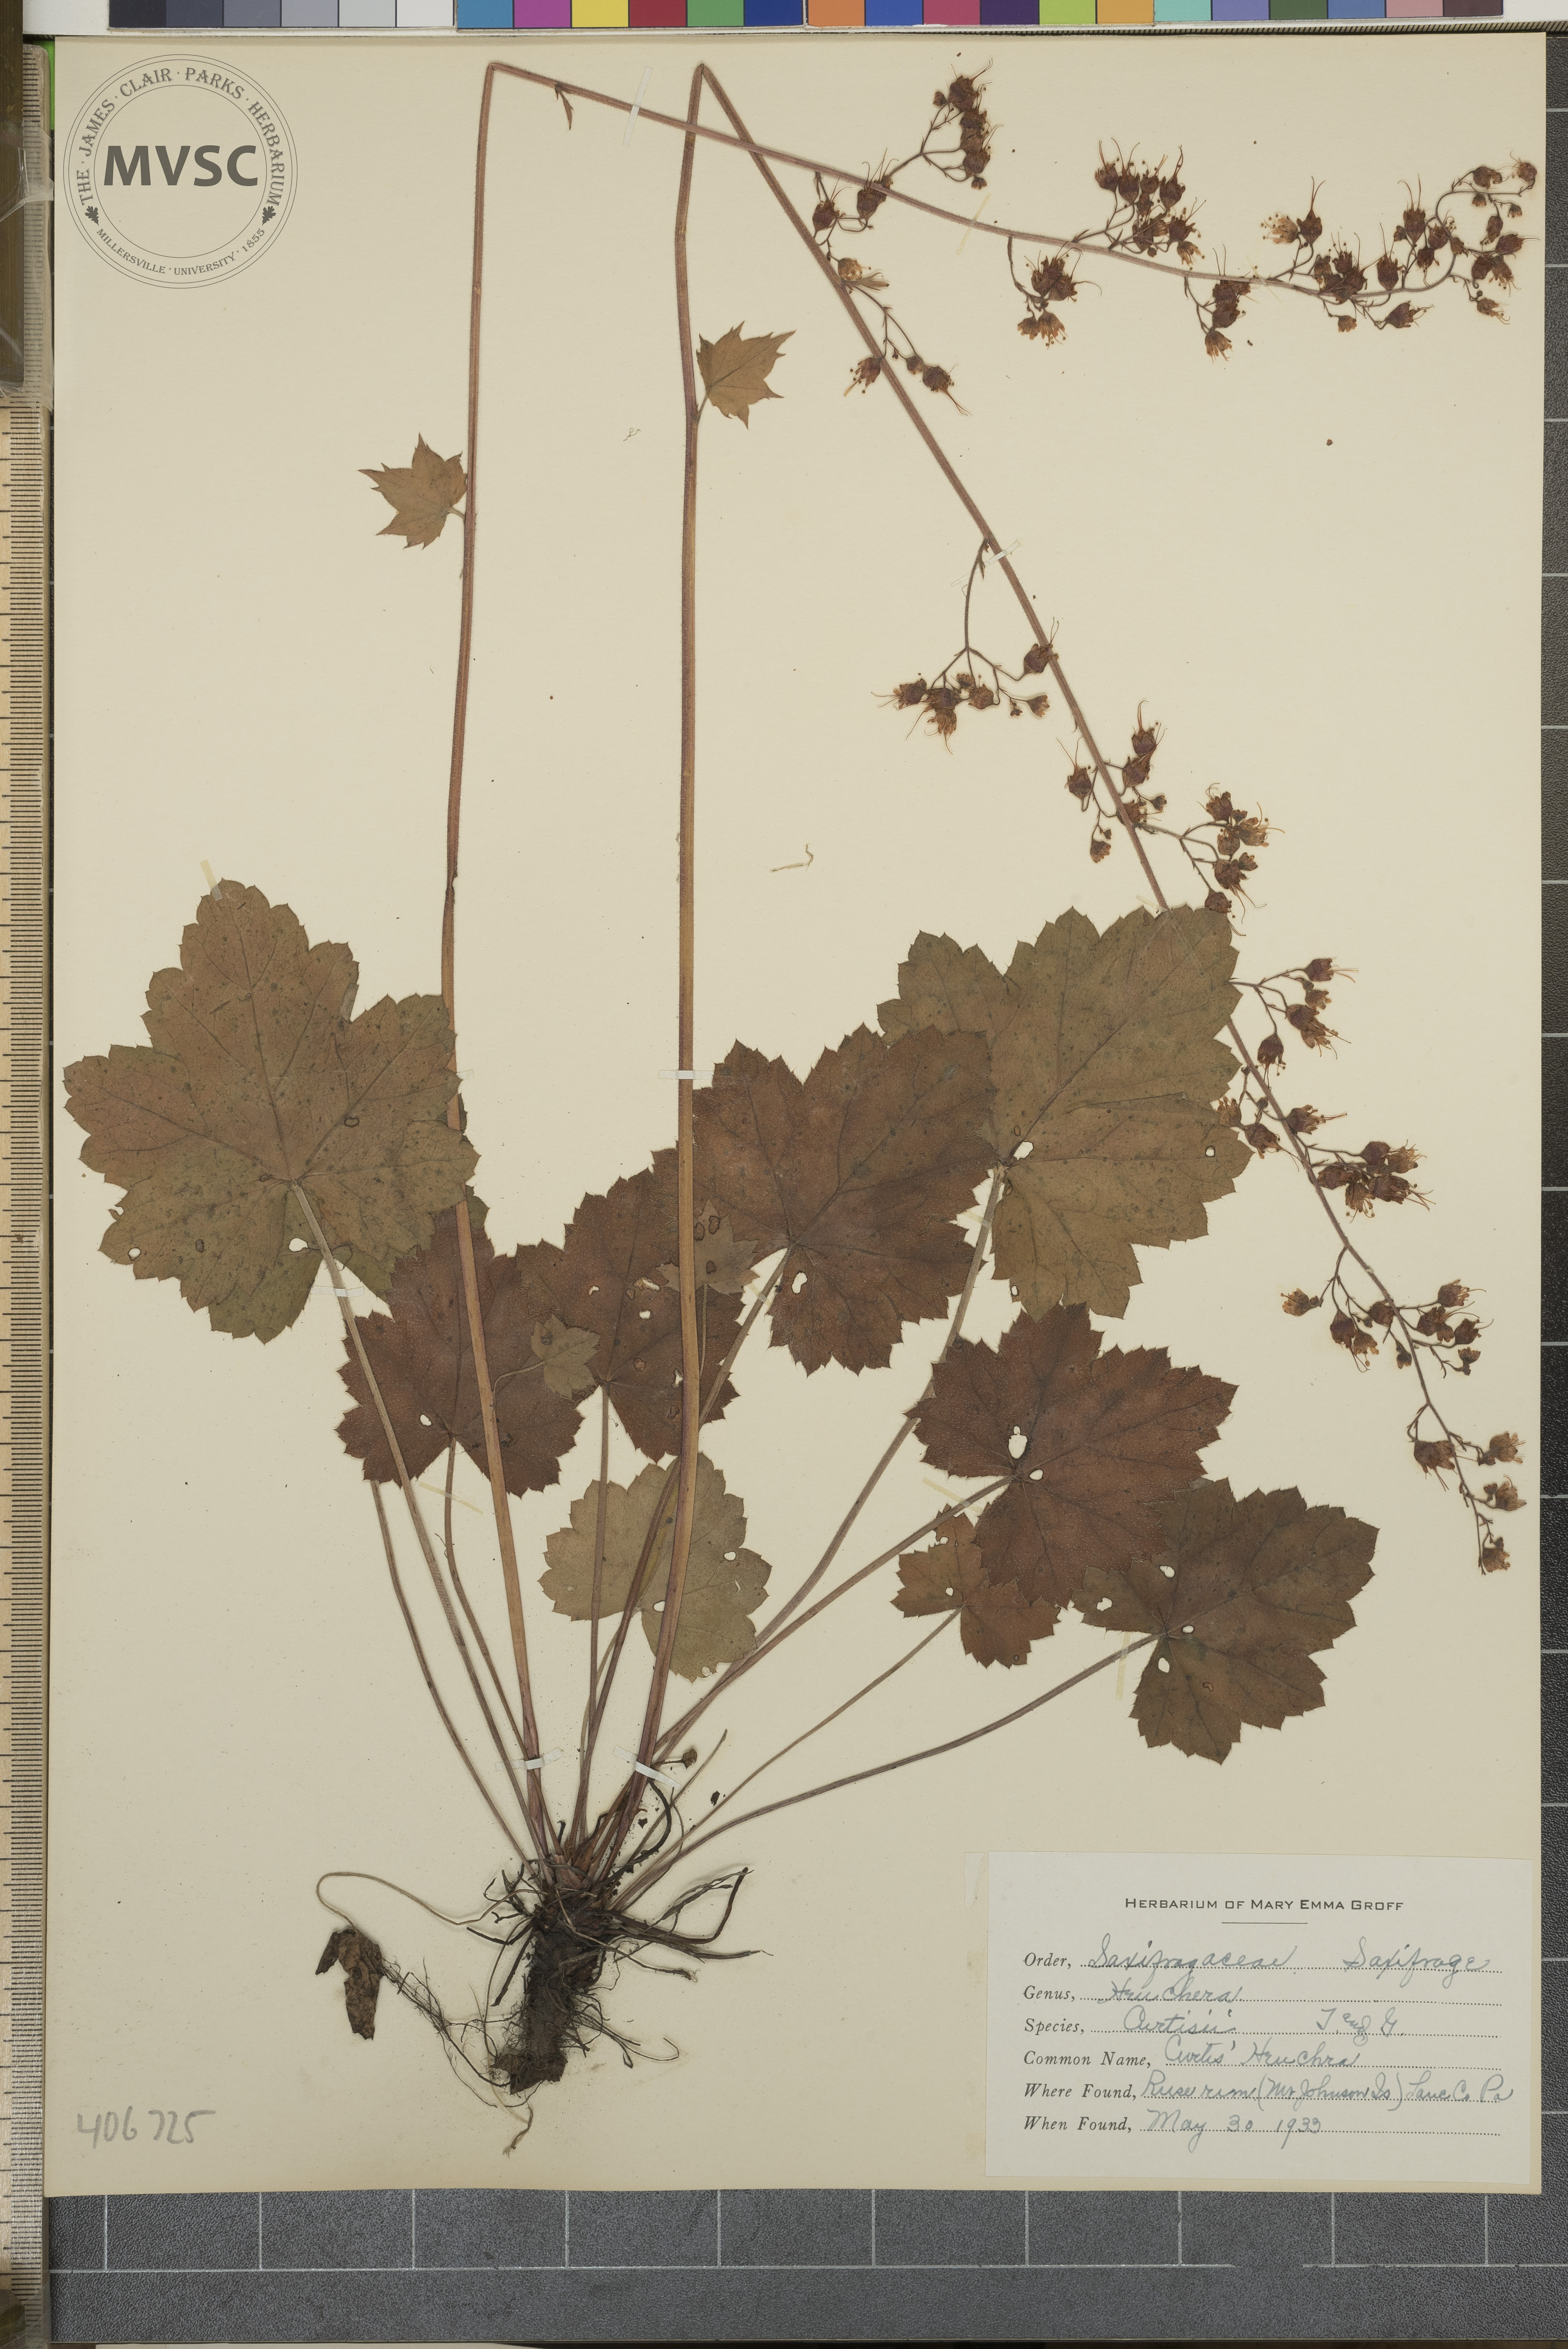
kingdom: Plantae
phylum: Tracheophyta
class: Magnoliopsida
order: Saxifragales
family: Saxifragaceae
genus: Heuchera
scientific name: Heuchera americana
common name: Alumroot
